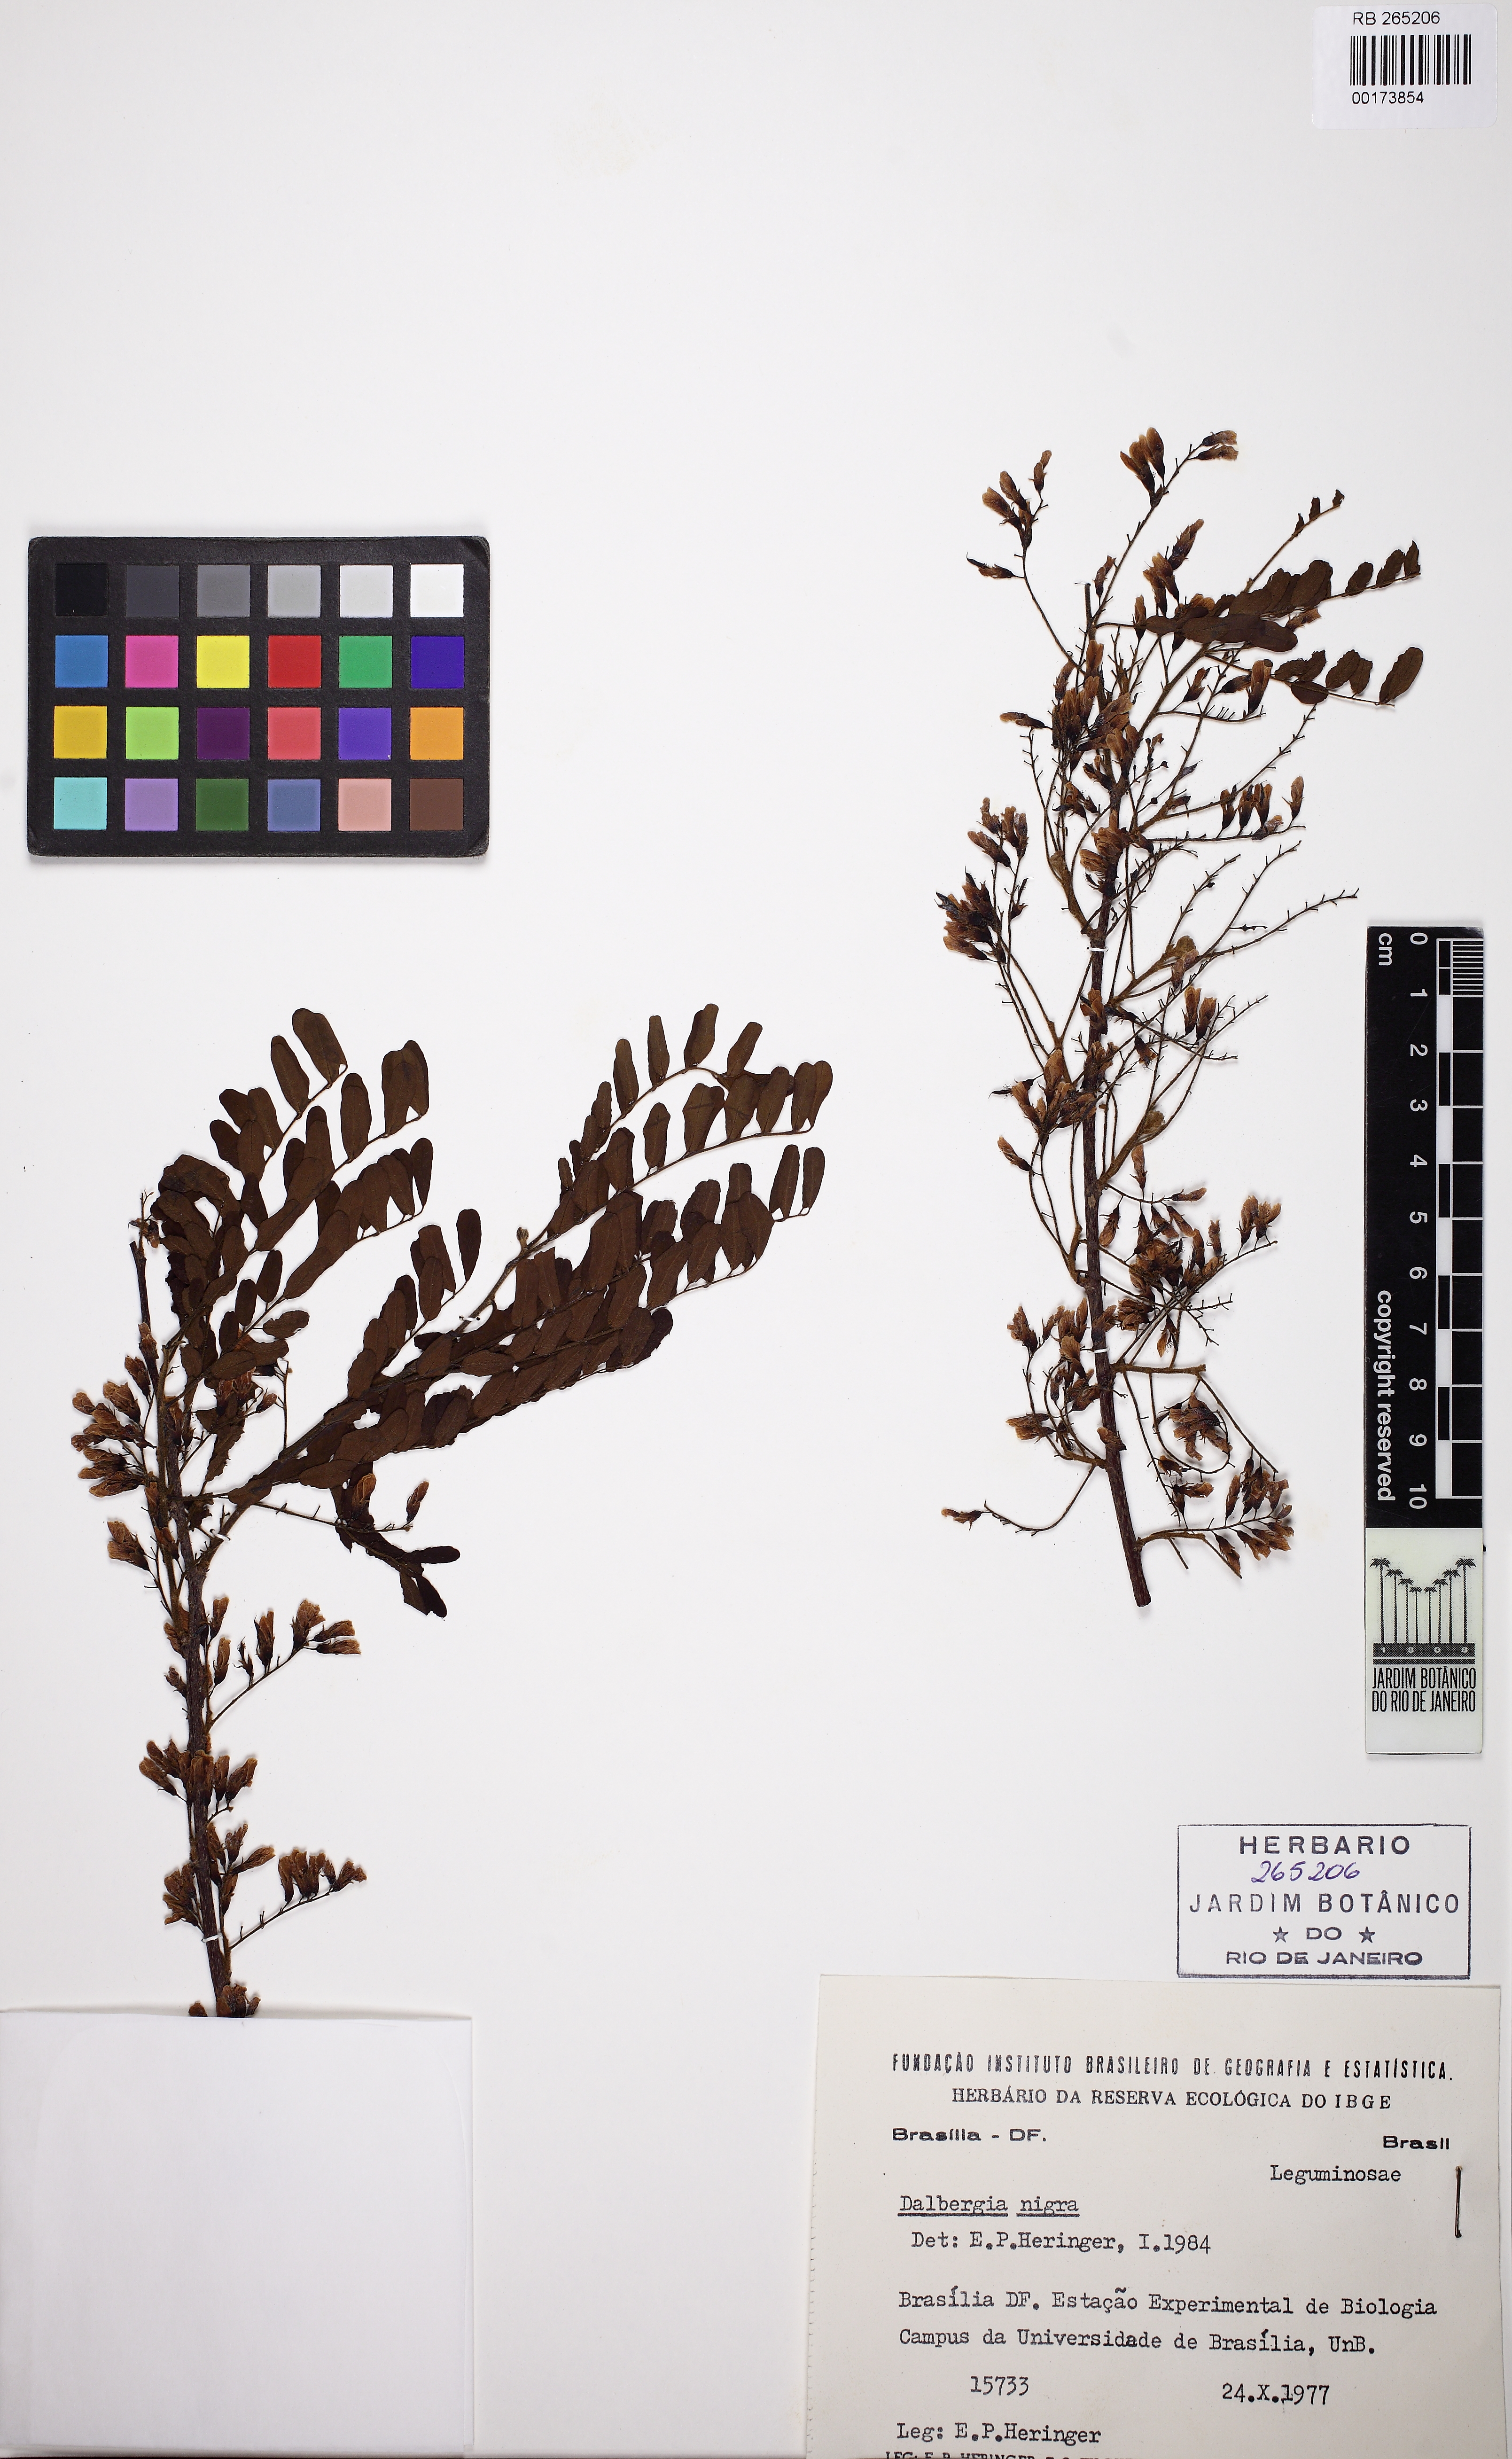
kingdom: Plantae
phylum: Tracheophyta
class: Magnoliopsida
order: Fabales
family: Fabaceae
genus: Dalbergia
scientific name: Dalbergia nigra
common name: Bahia rosewood
